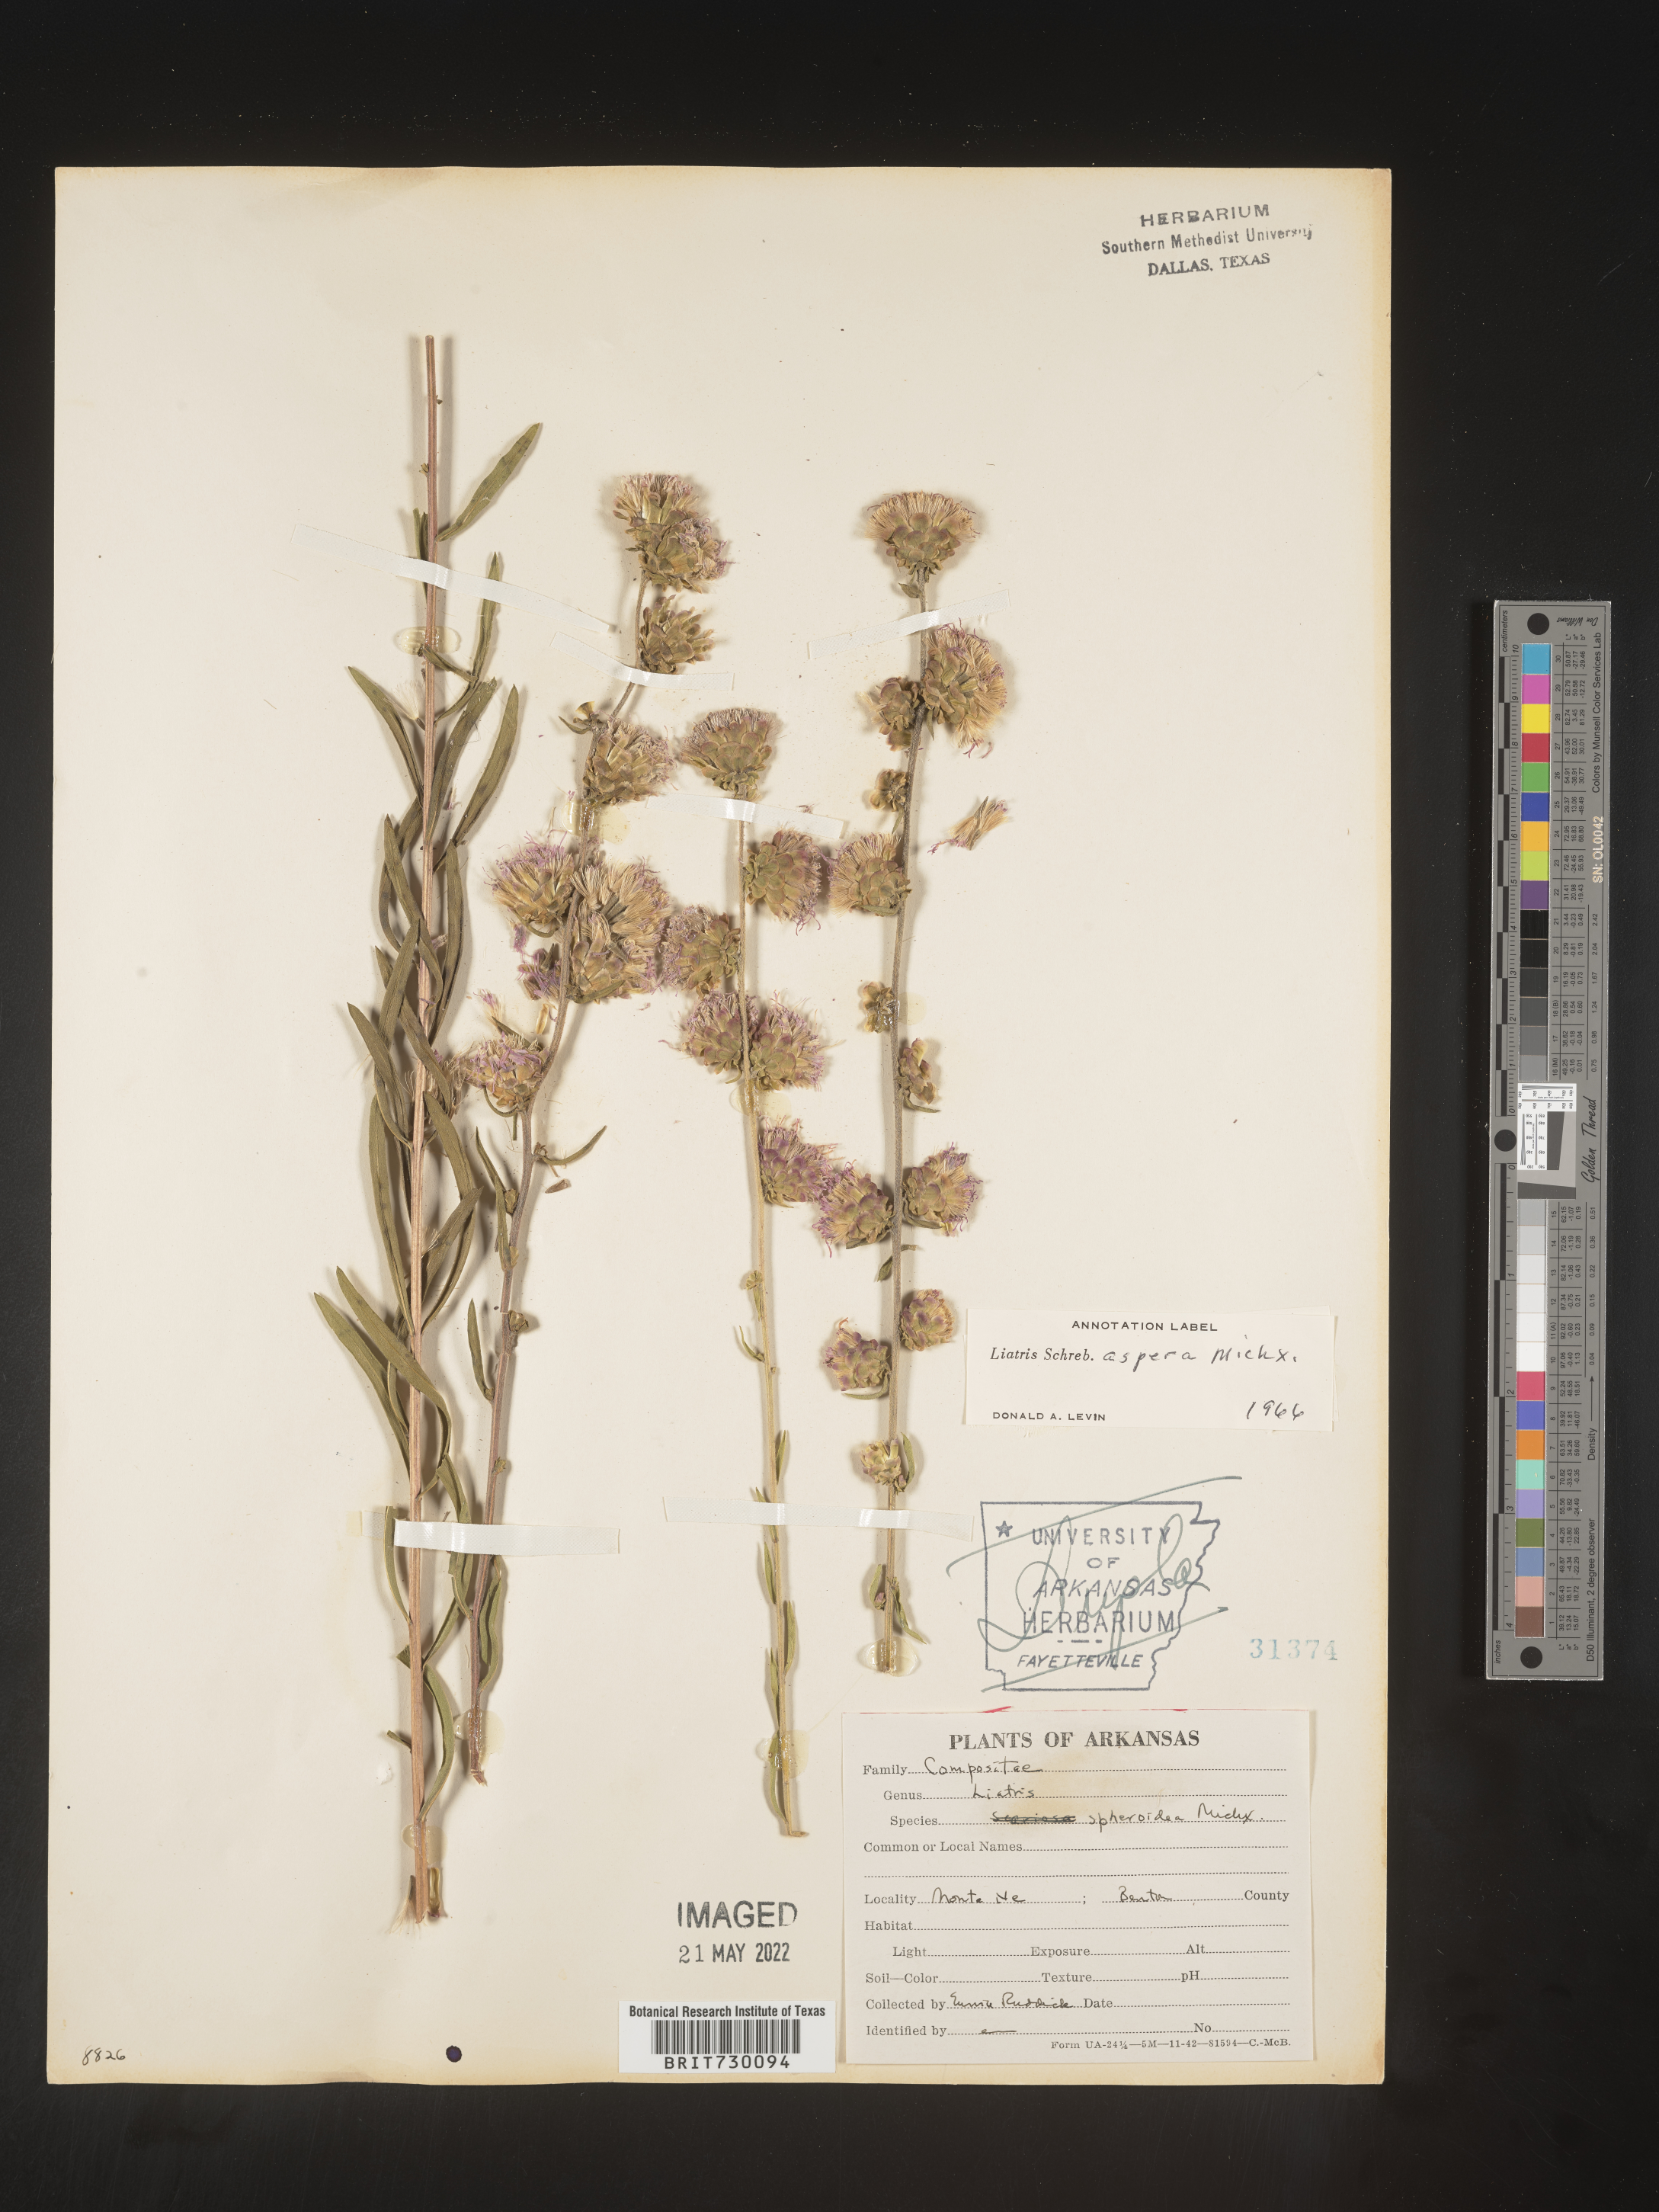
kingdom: Plantae
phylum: Tracheophyta
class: Magnoliopsida
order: Asterales
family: Asteraceae
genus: Liatris
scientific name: Liatris aspera
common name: Lacerate blazing-star
